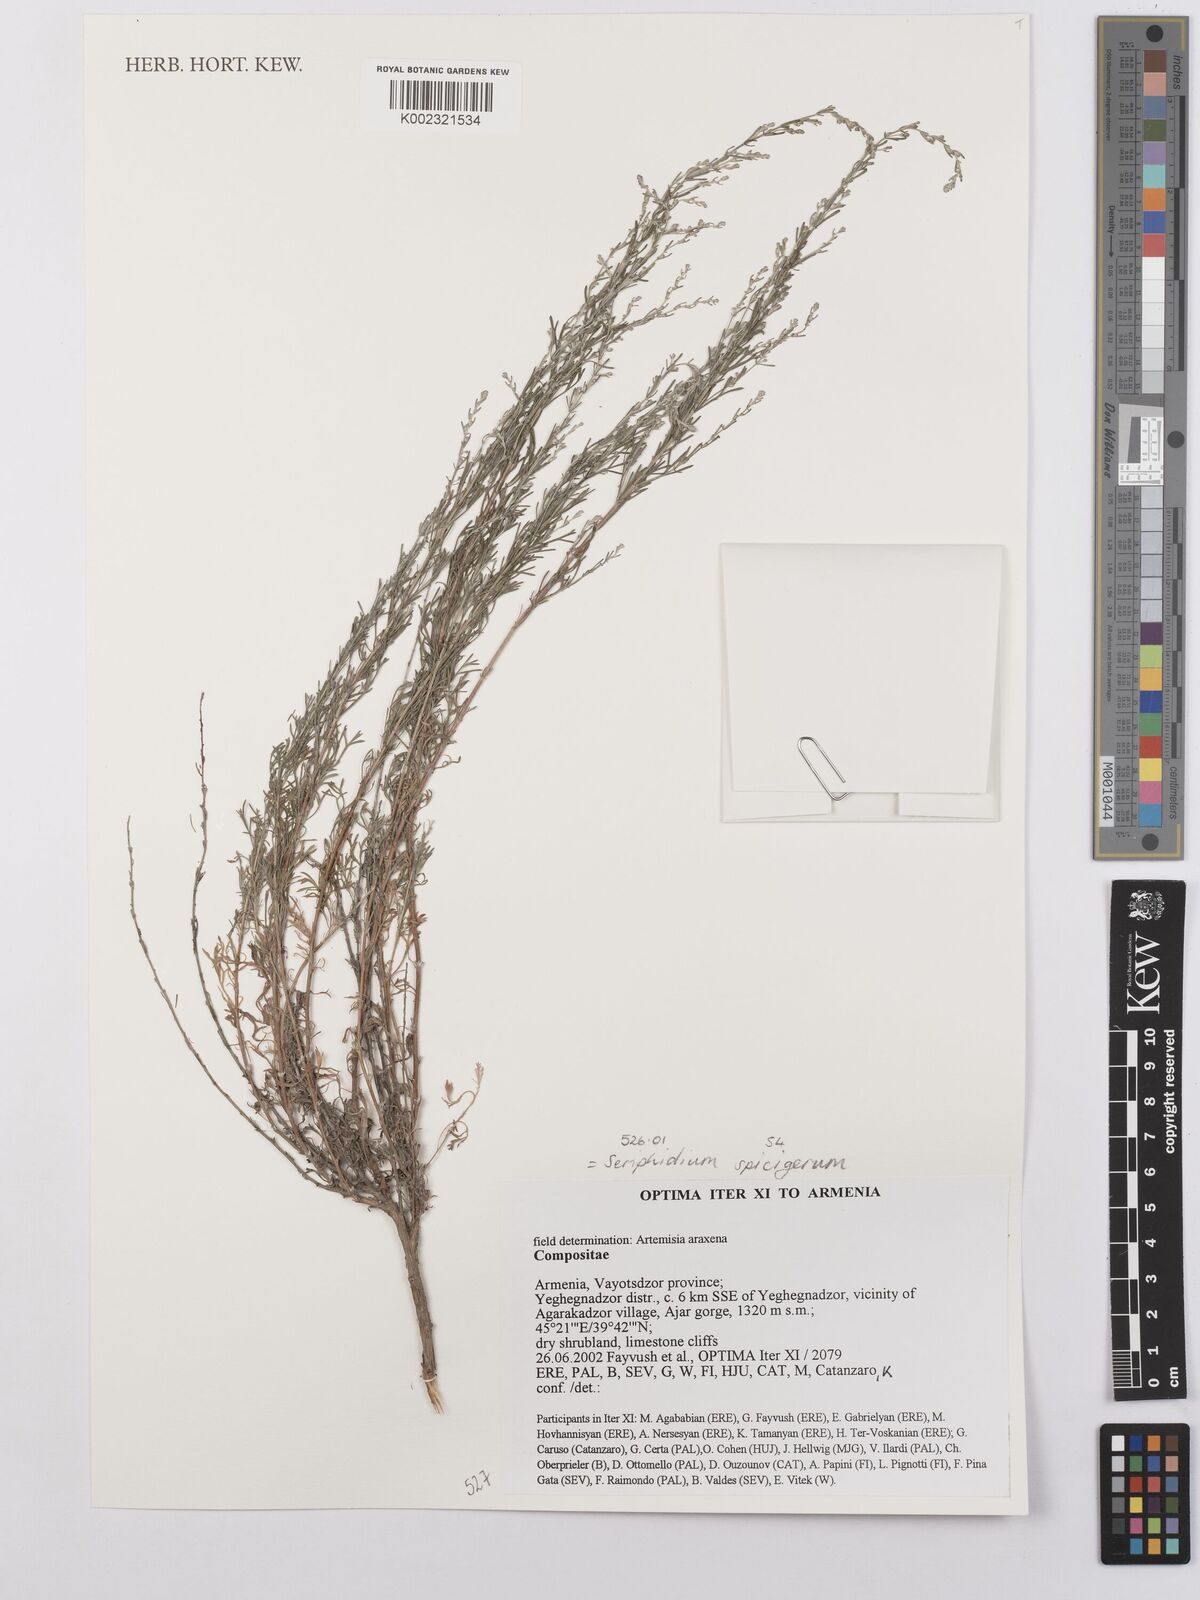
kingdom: Plantae
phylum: Tracheophyta
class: Magnoliopsida
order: Asterales
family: Asteraceae
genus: Artemisia
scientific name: Artemisia spicigera
